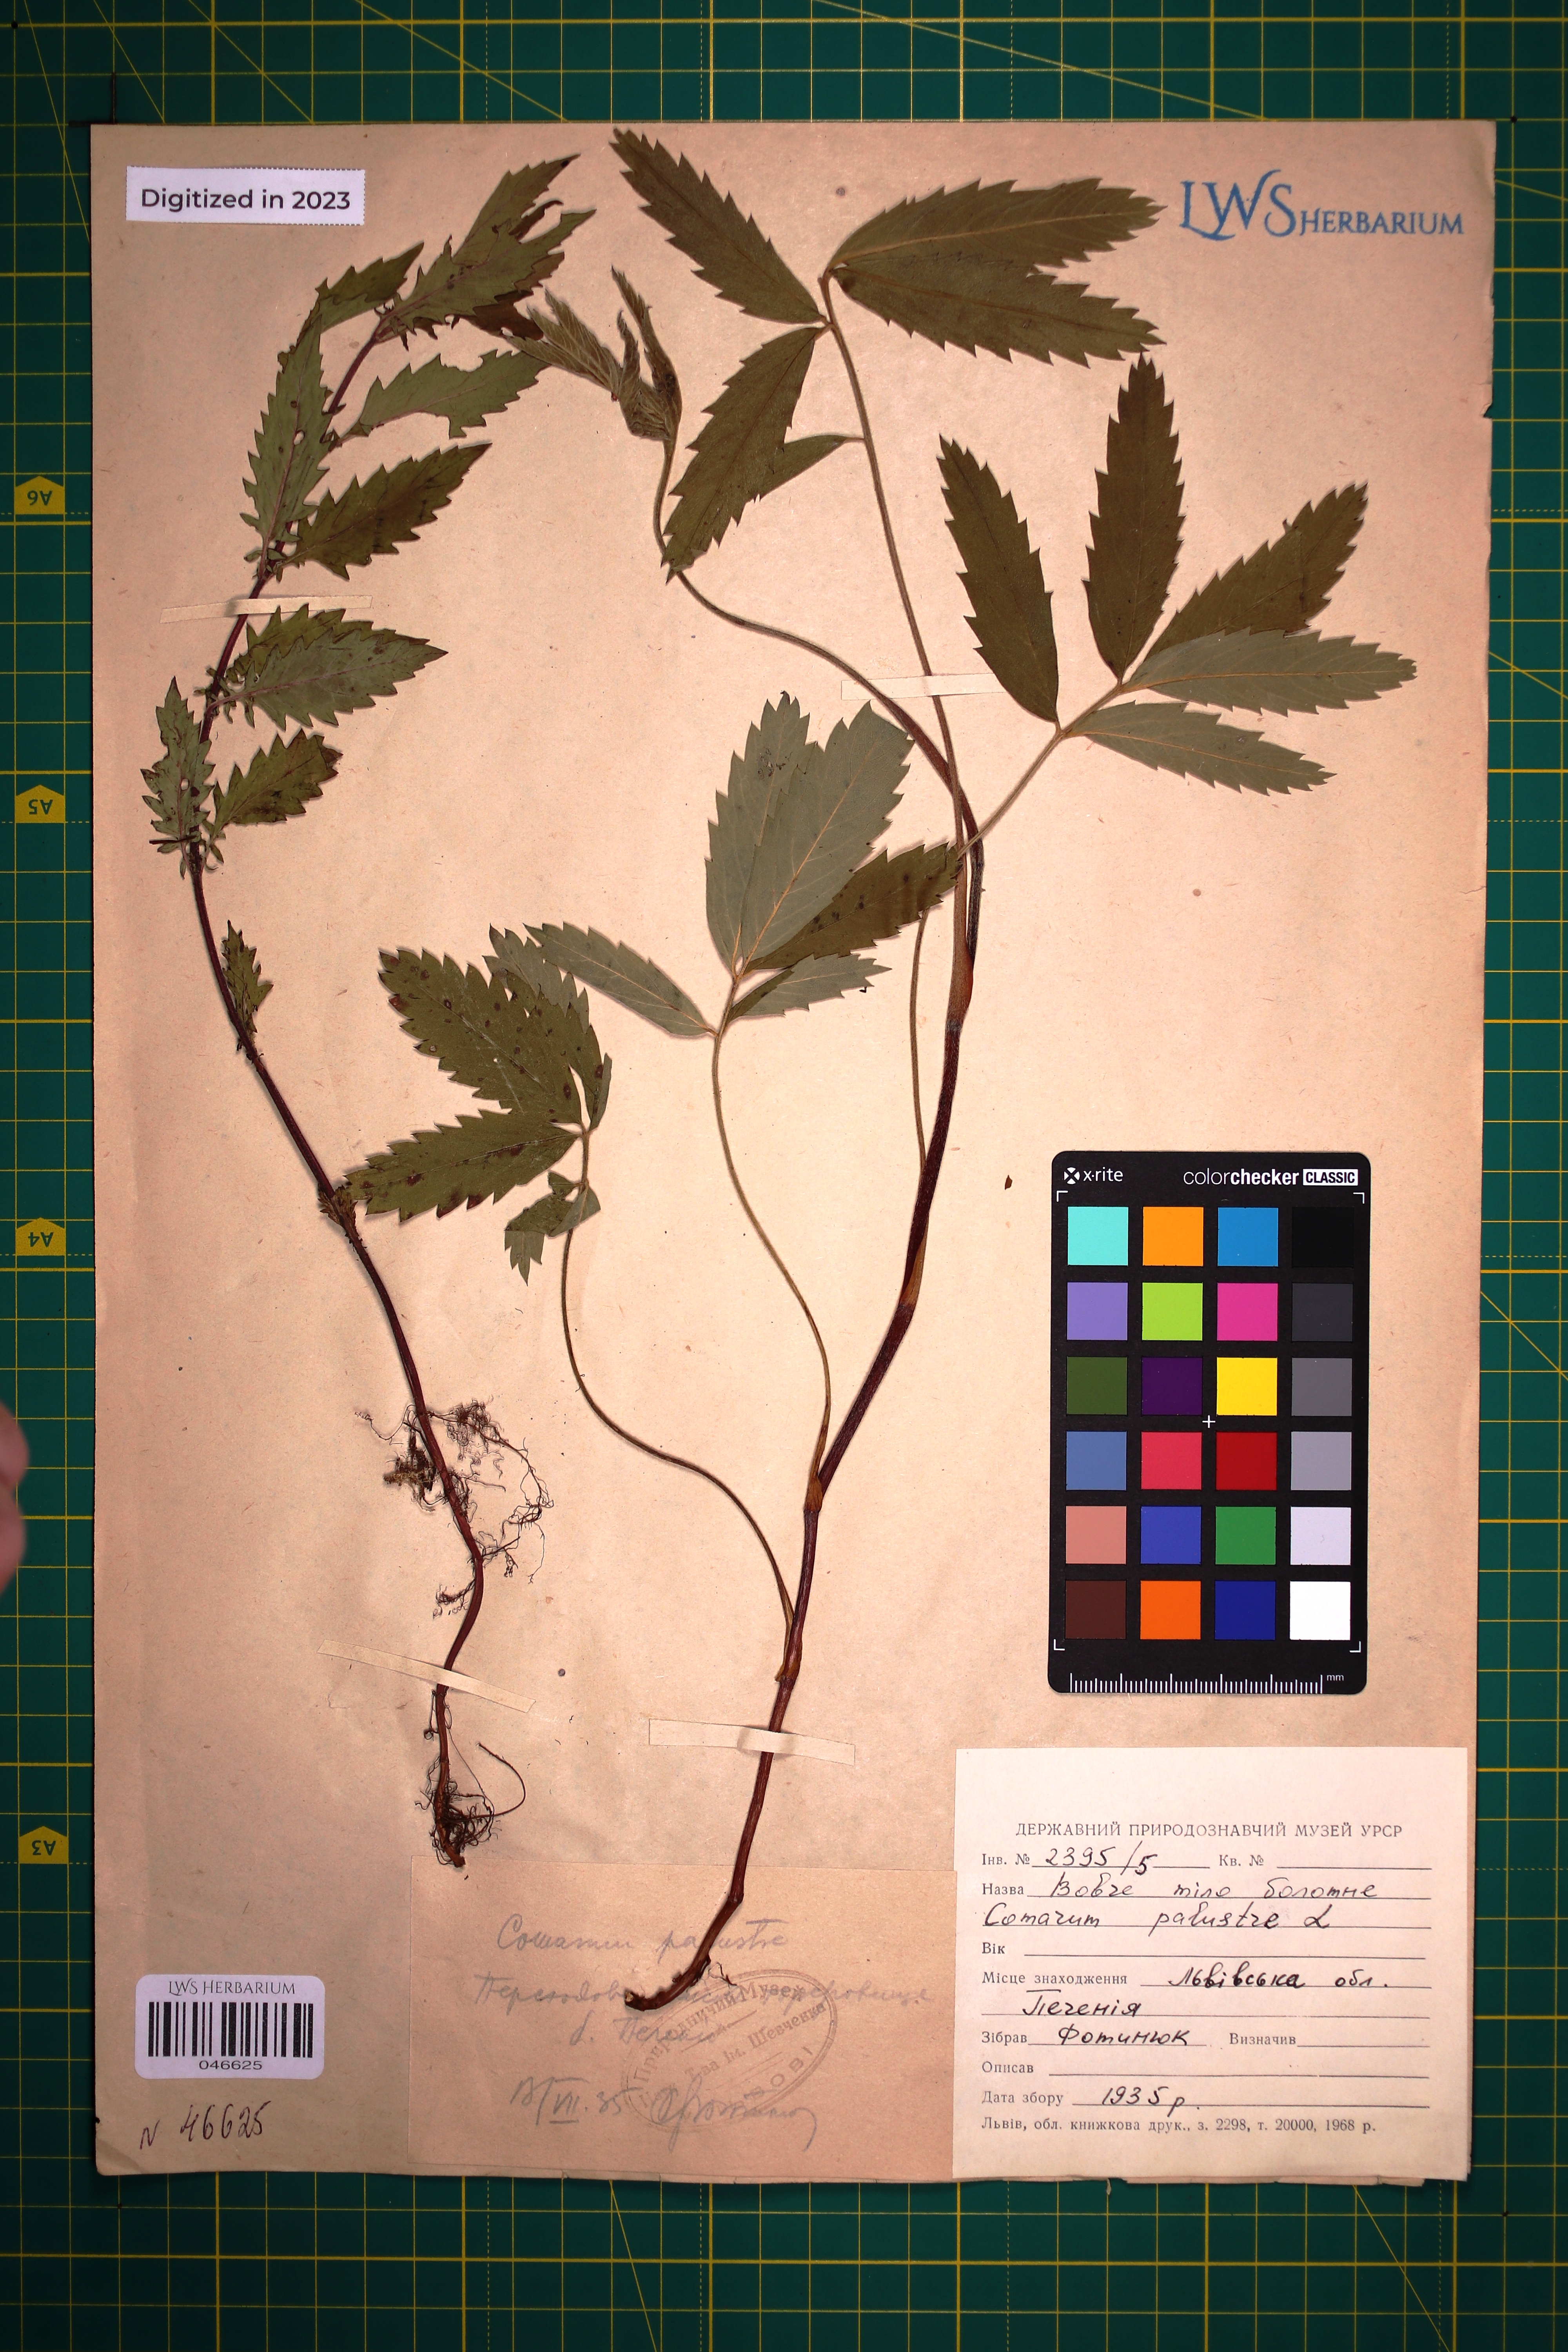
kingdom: Plantae
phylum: Tracheophyta
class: Magnoliopsida
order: Rosales
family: Rosaceae
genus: Comarum
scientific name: Comarum palustre
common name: Marsh cinquefoil
